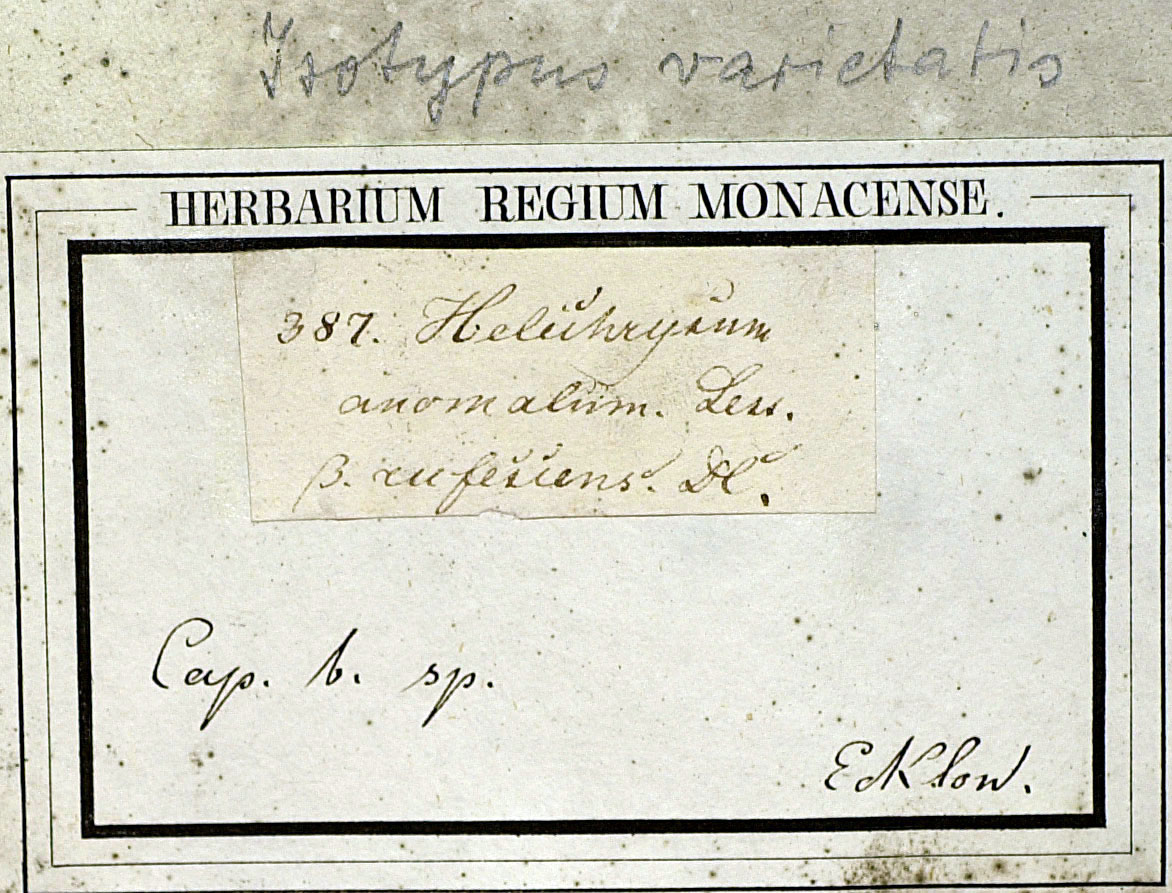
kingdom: Plantae
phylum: Tracheophyta
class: Magnoliopsida
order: Asterales
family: Asteraceae
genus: Helichrysum
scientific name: Helichrysum anomalum
